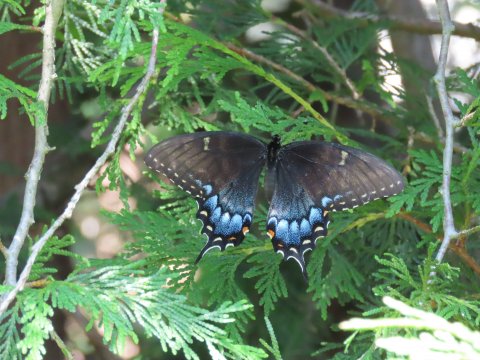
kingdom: Animalia
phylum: Arthropoda
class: Insecta
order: Lepidoptera
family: Papilionidae
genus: Pterourus
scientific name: Pterourus glaucus
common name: Eastern Tiger Swallowtail
